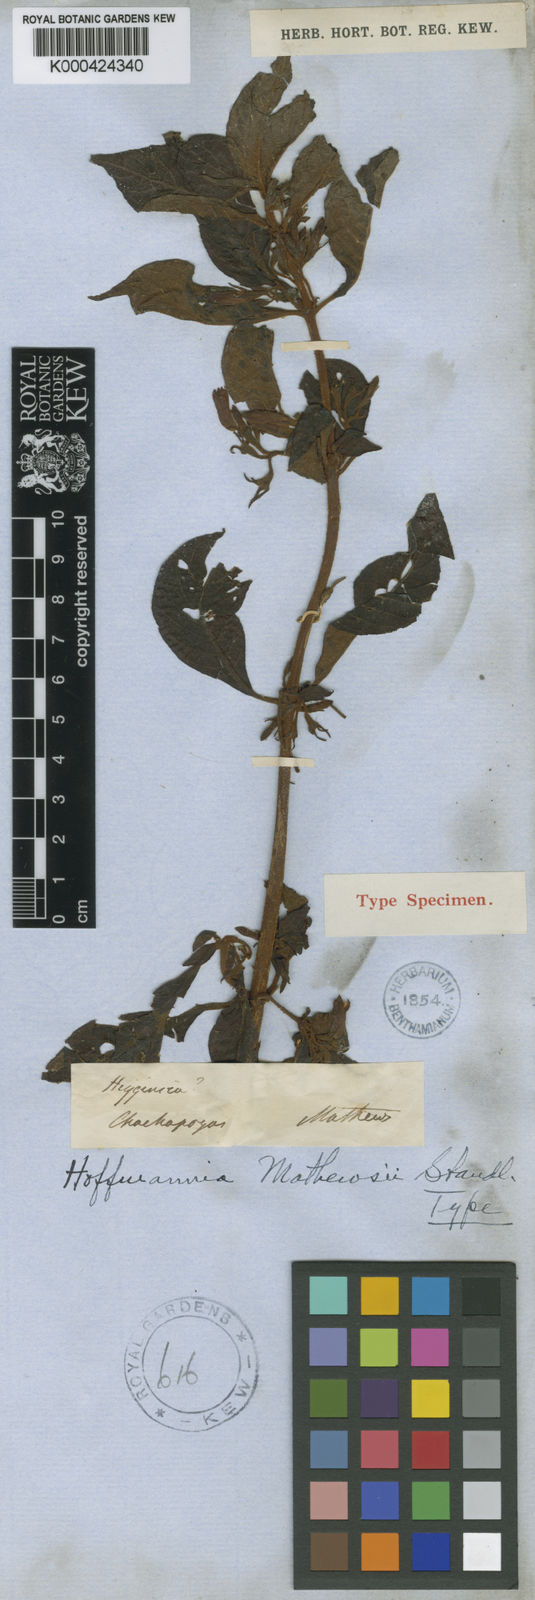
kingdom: Plantae
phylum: Tracheophyta
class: Magnoliopsida
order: Gentianales
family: Rubiaceae
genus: Hoffmannia
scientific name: Hoffmannia mathewsii
